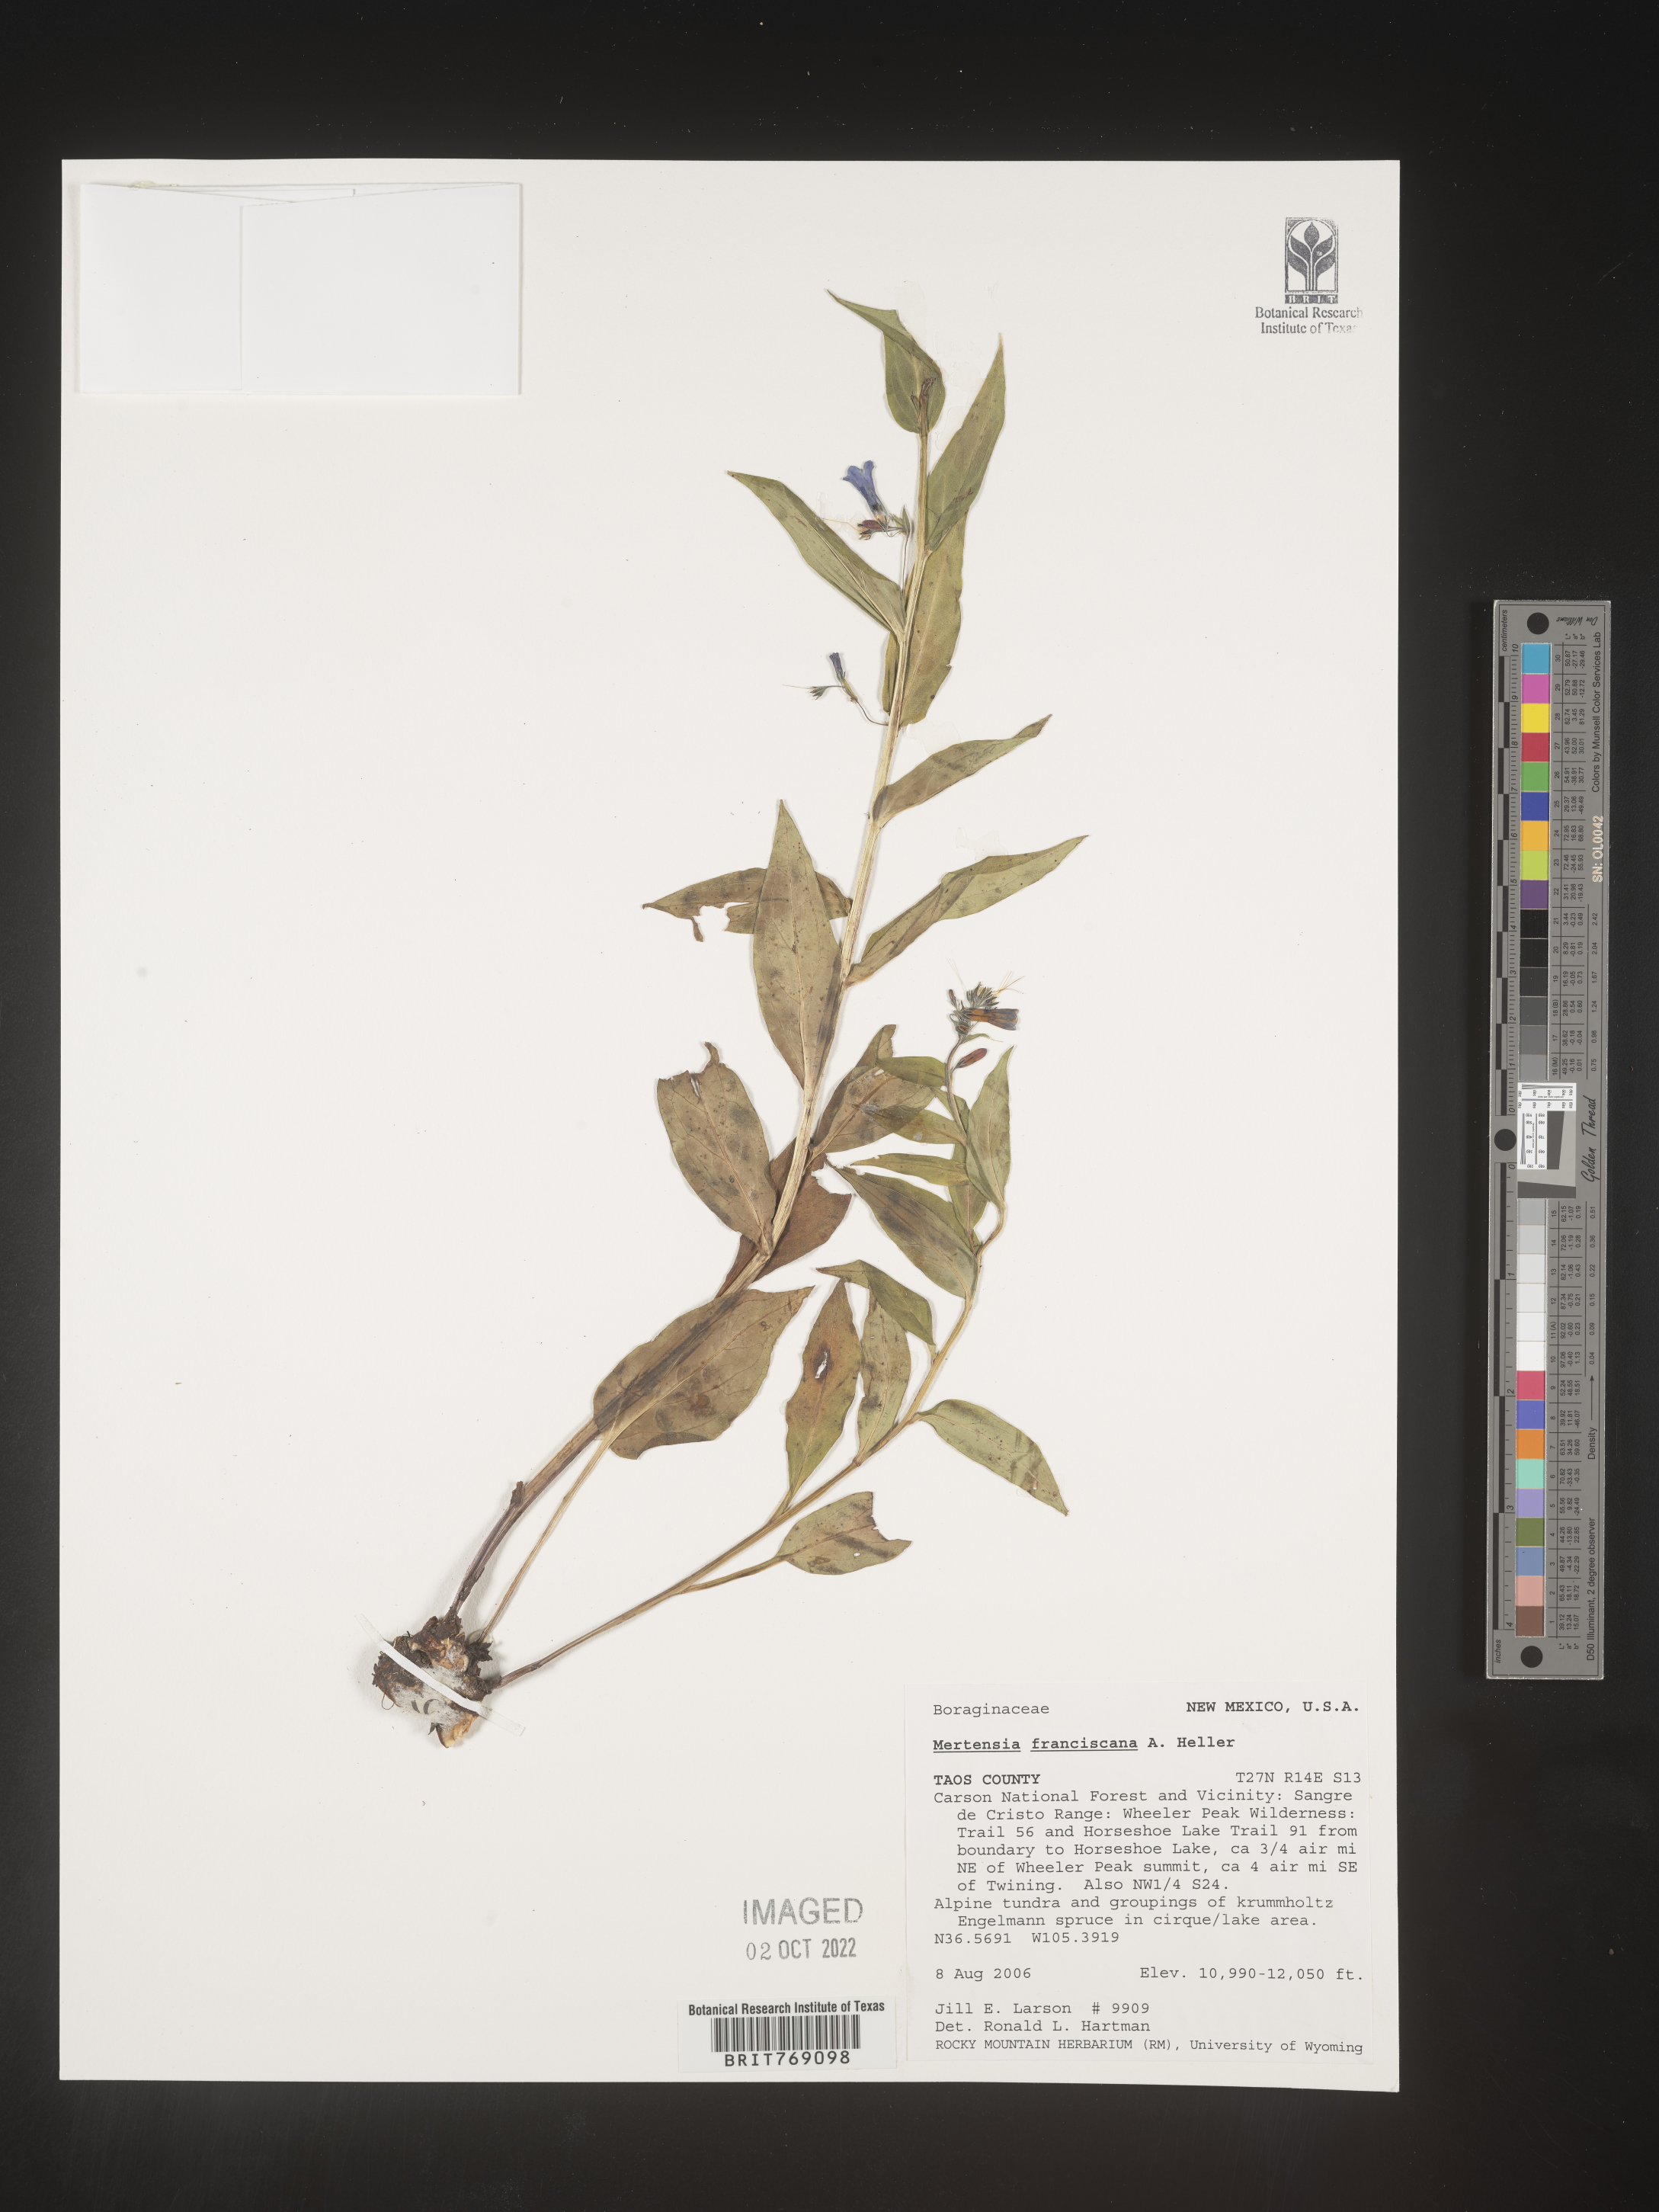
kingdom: Plantae
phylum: Tracheophyta
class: Magnoliopsida
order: Boraginales
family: Boraginaceae
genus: Mertensia
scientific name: Mertensia
